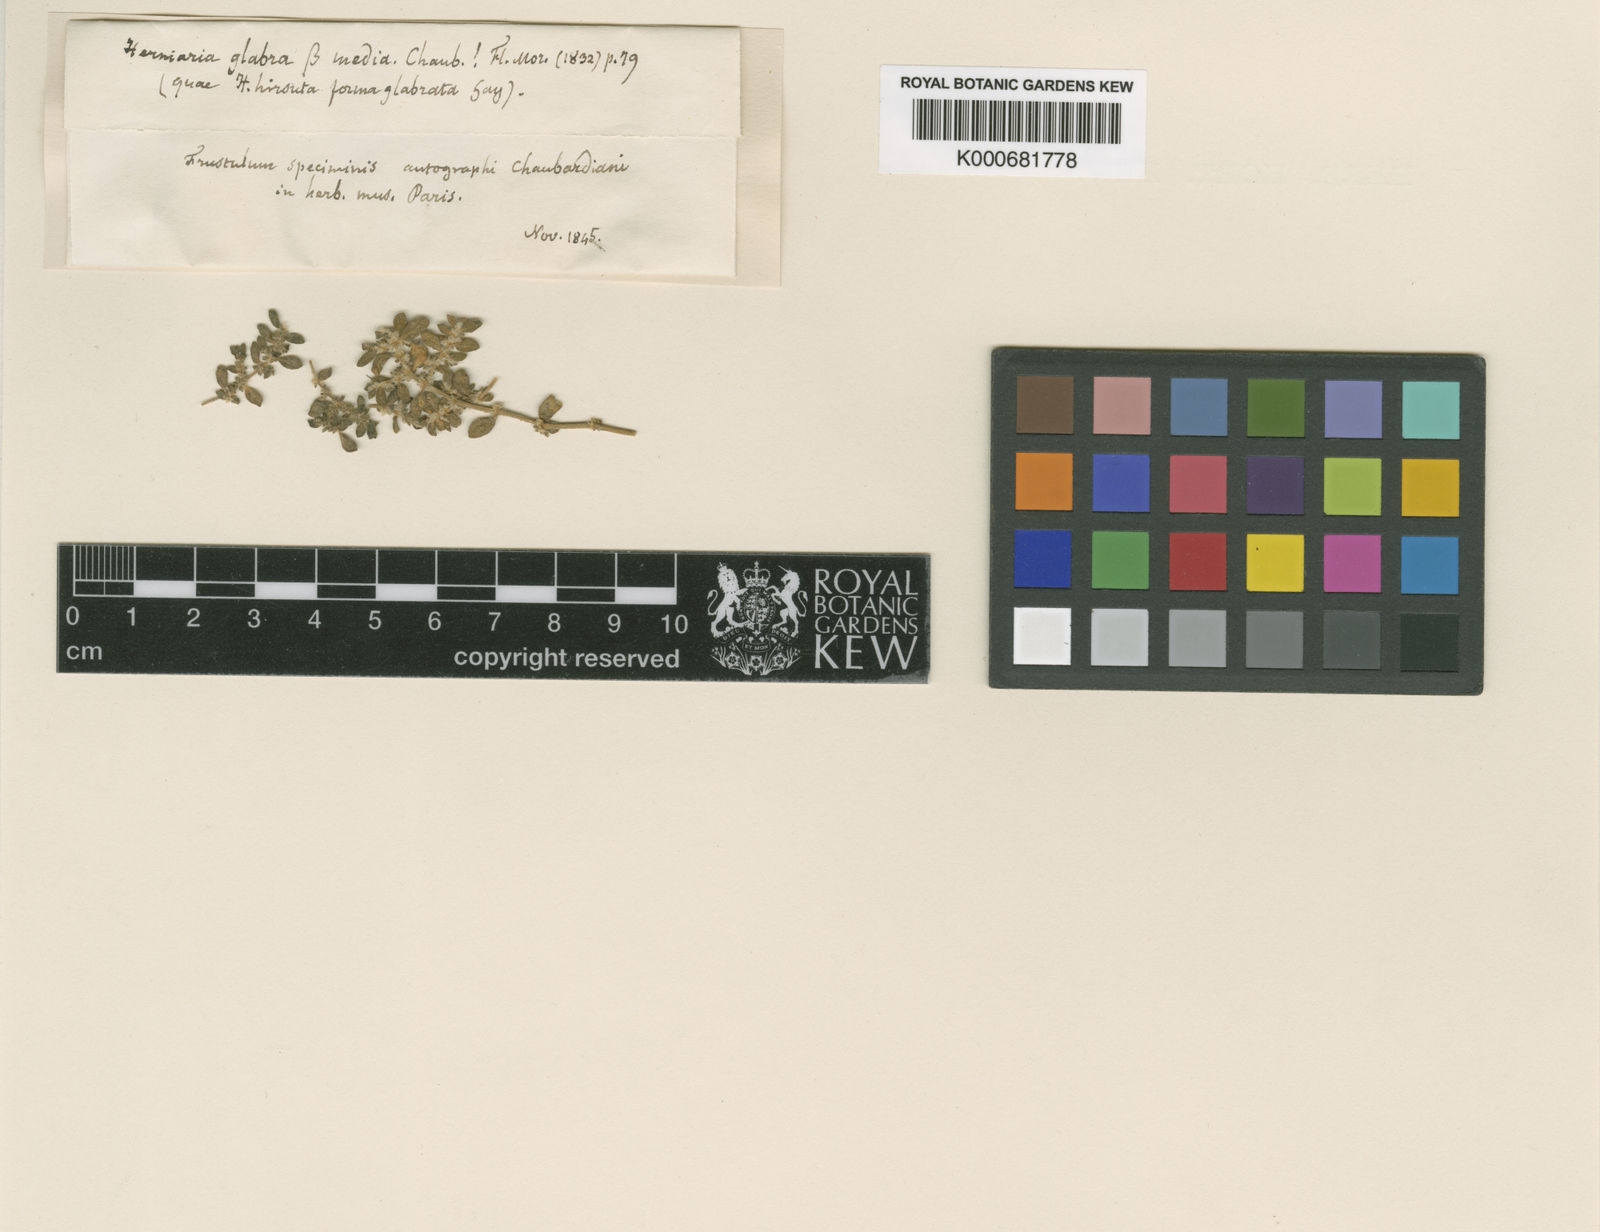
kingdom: Plantae
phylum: Tracheophyta
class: Magnoliopsida
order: Caryophyllales
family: Caryophyllaceae
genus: Herniaria
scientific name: Herniaria hirsuta
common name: Hairy rupturewort
